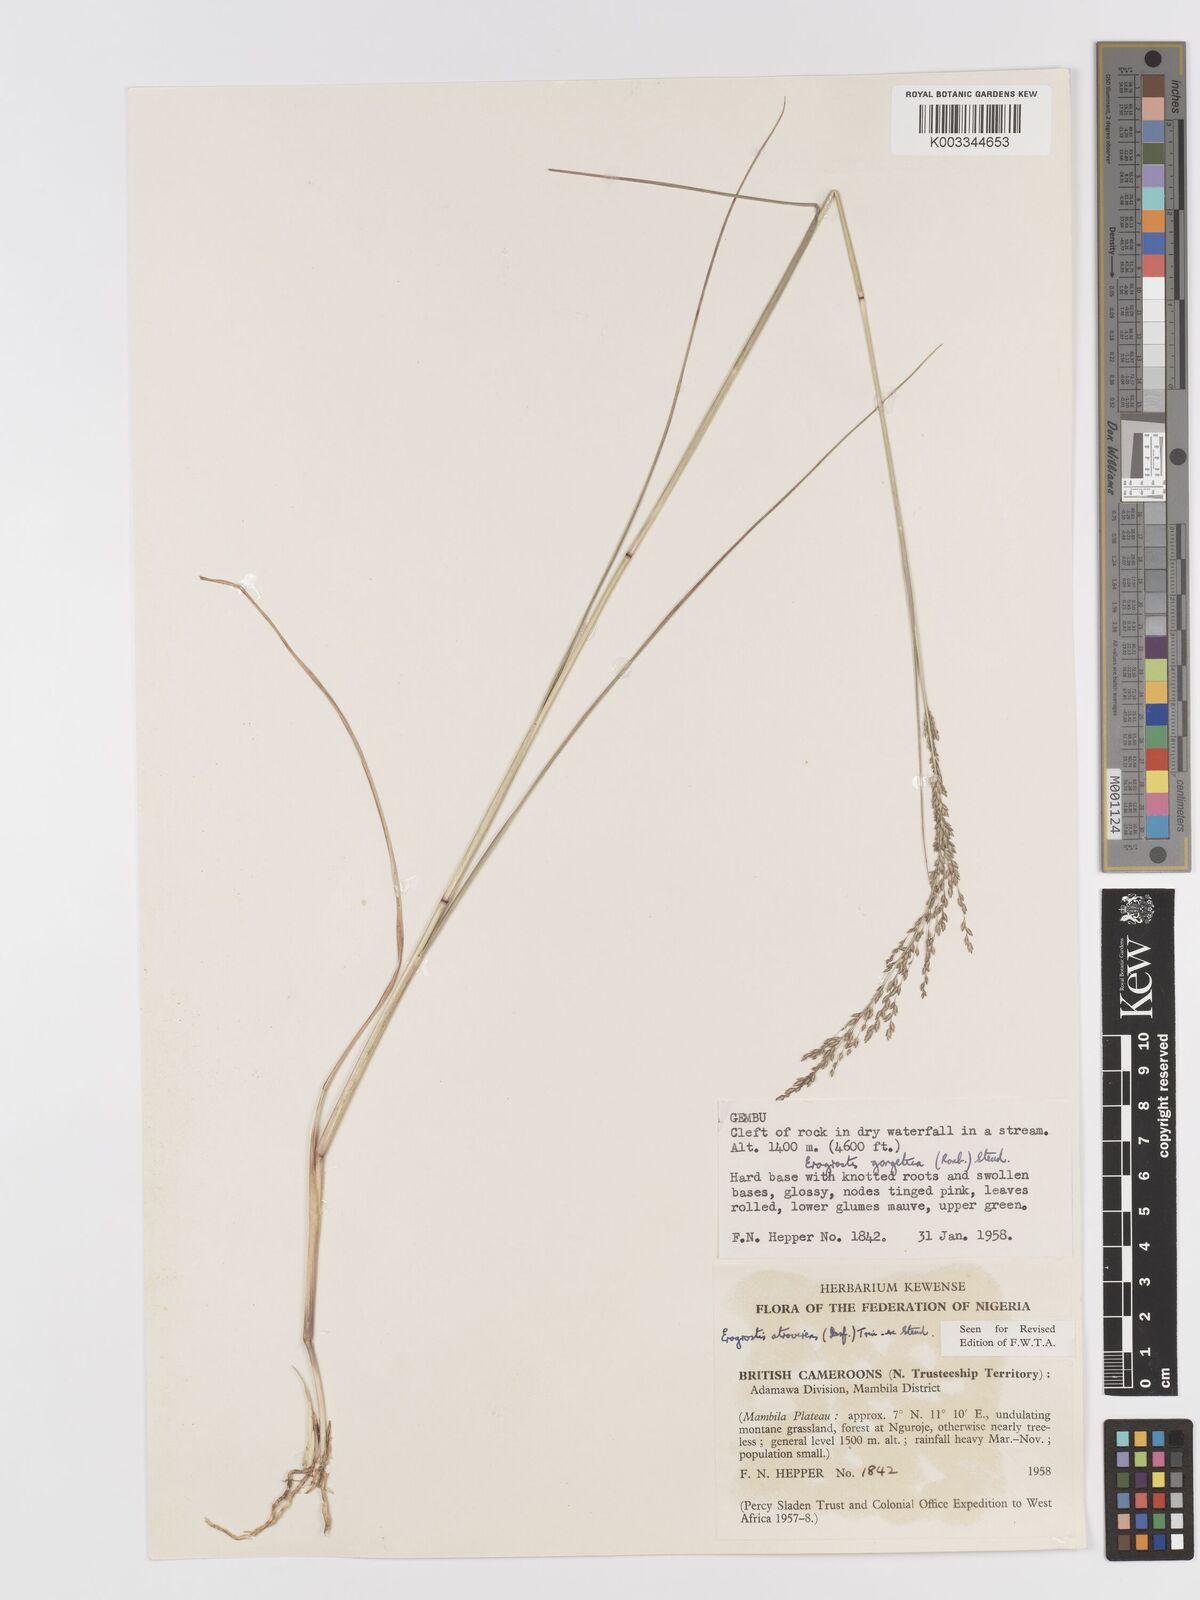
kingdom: Plantae
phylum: Tracheophyta
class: Liliopsida
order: Poales
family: Poaceae
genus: Eragrostis
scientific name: Eragrostis atrovirens
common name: Thalia lovegrass
